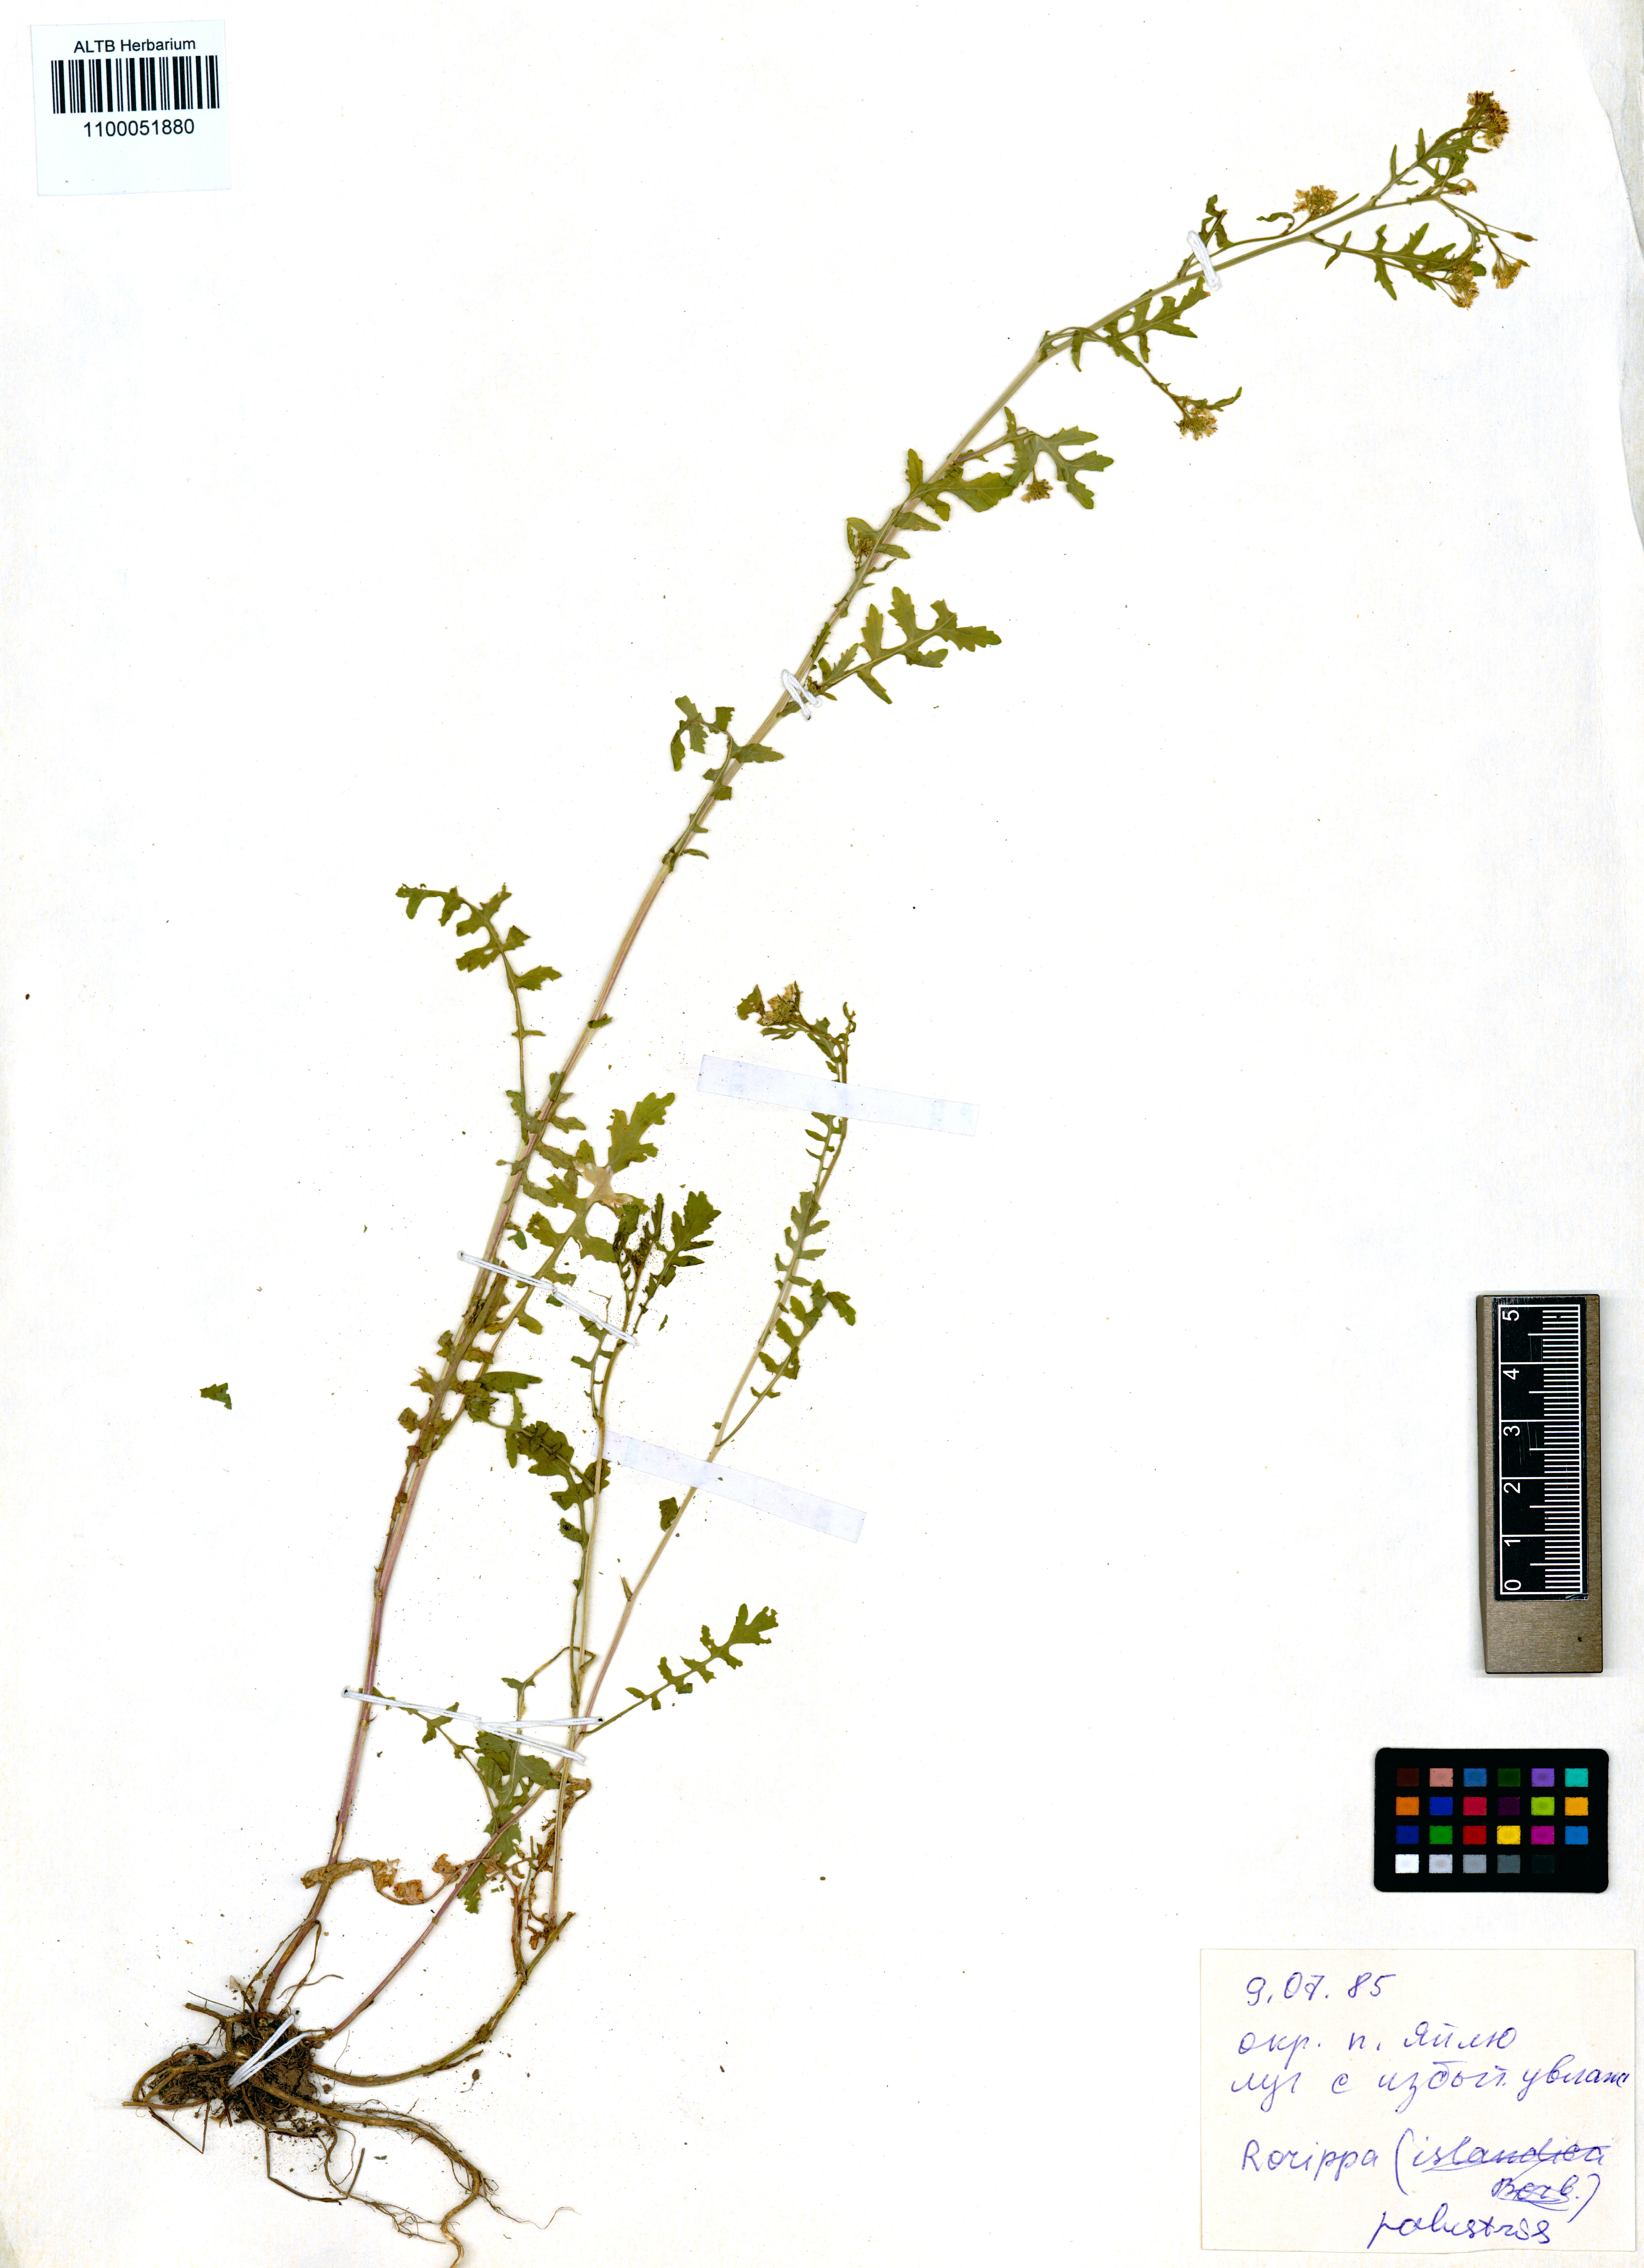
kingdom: Plantae
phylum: Tracheophyta
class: Magnoliopsida
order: Brassicales
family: Brassicaceae
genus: Rorippa
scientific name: Rorippa palustris
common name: Marsh yellow-cress
